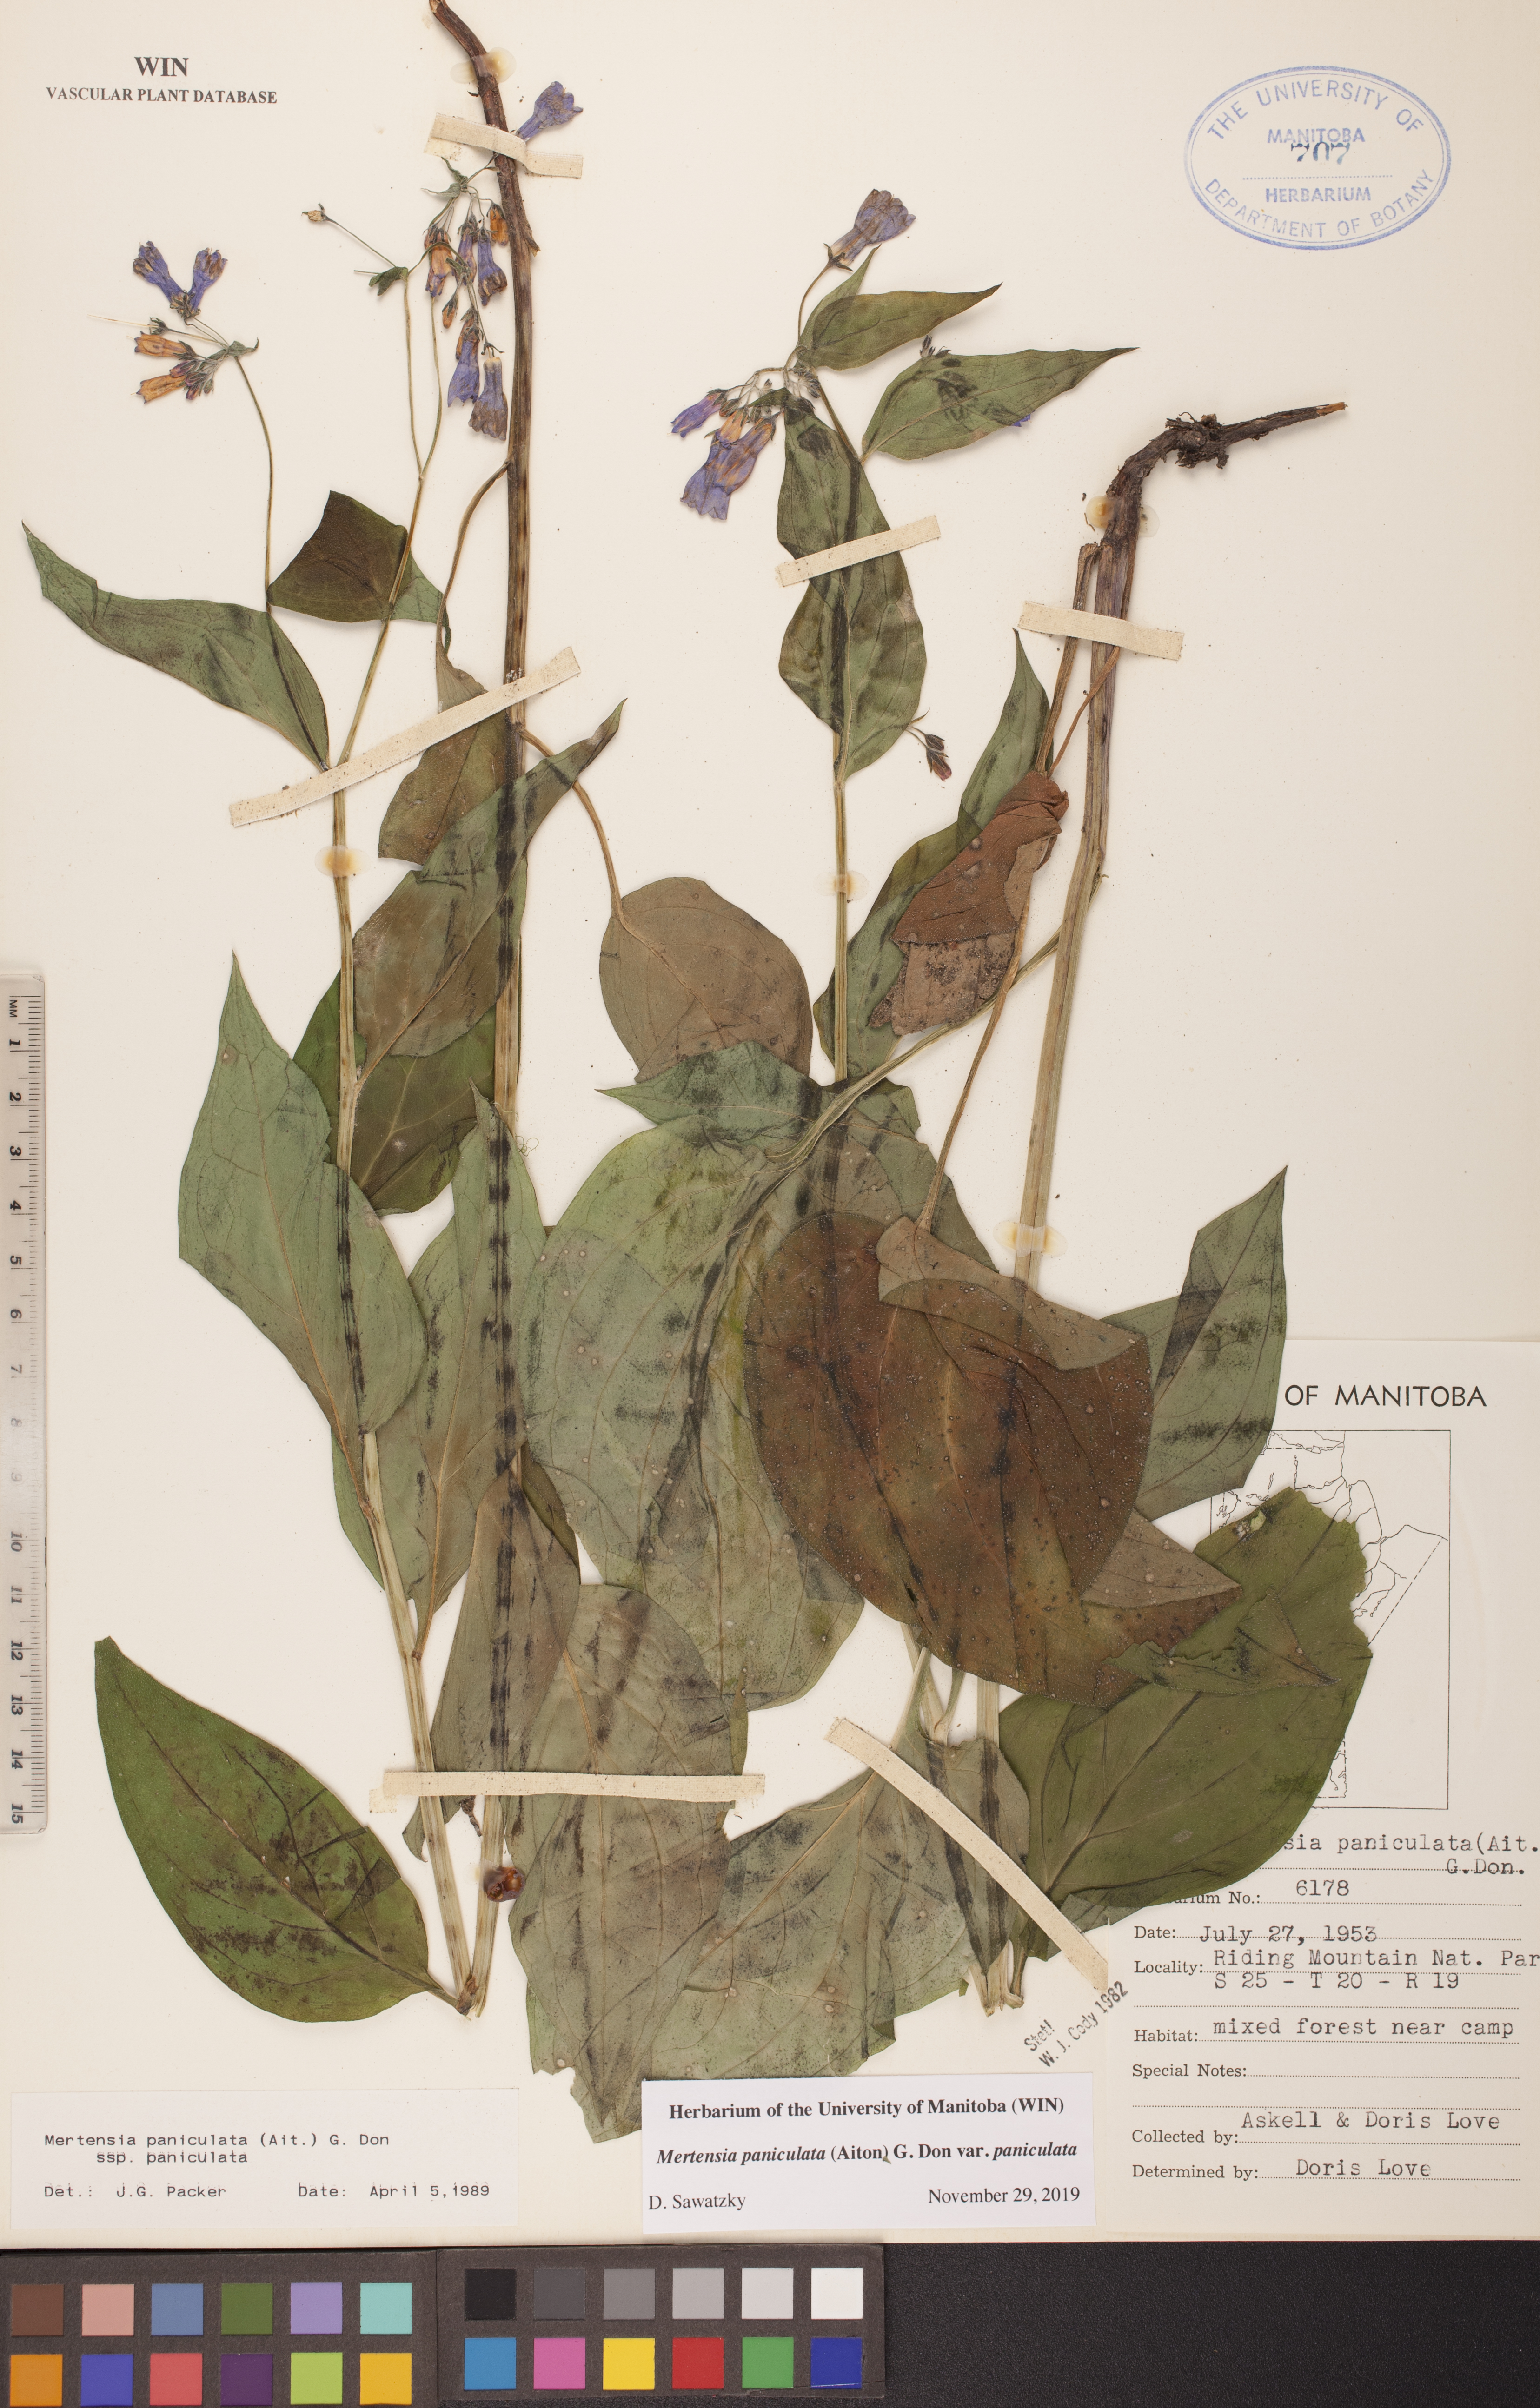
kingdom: Plantae
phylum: Tracheophyta
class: Magnoliopsida
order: Boraginales
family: Boraginaceae
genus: Mertensia
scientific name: Mertensia paniculata
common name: Panicled bluebells
